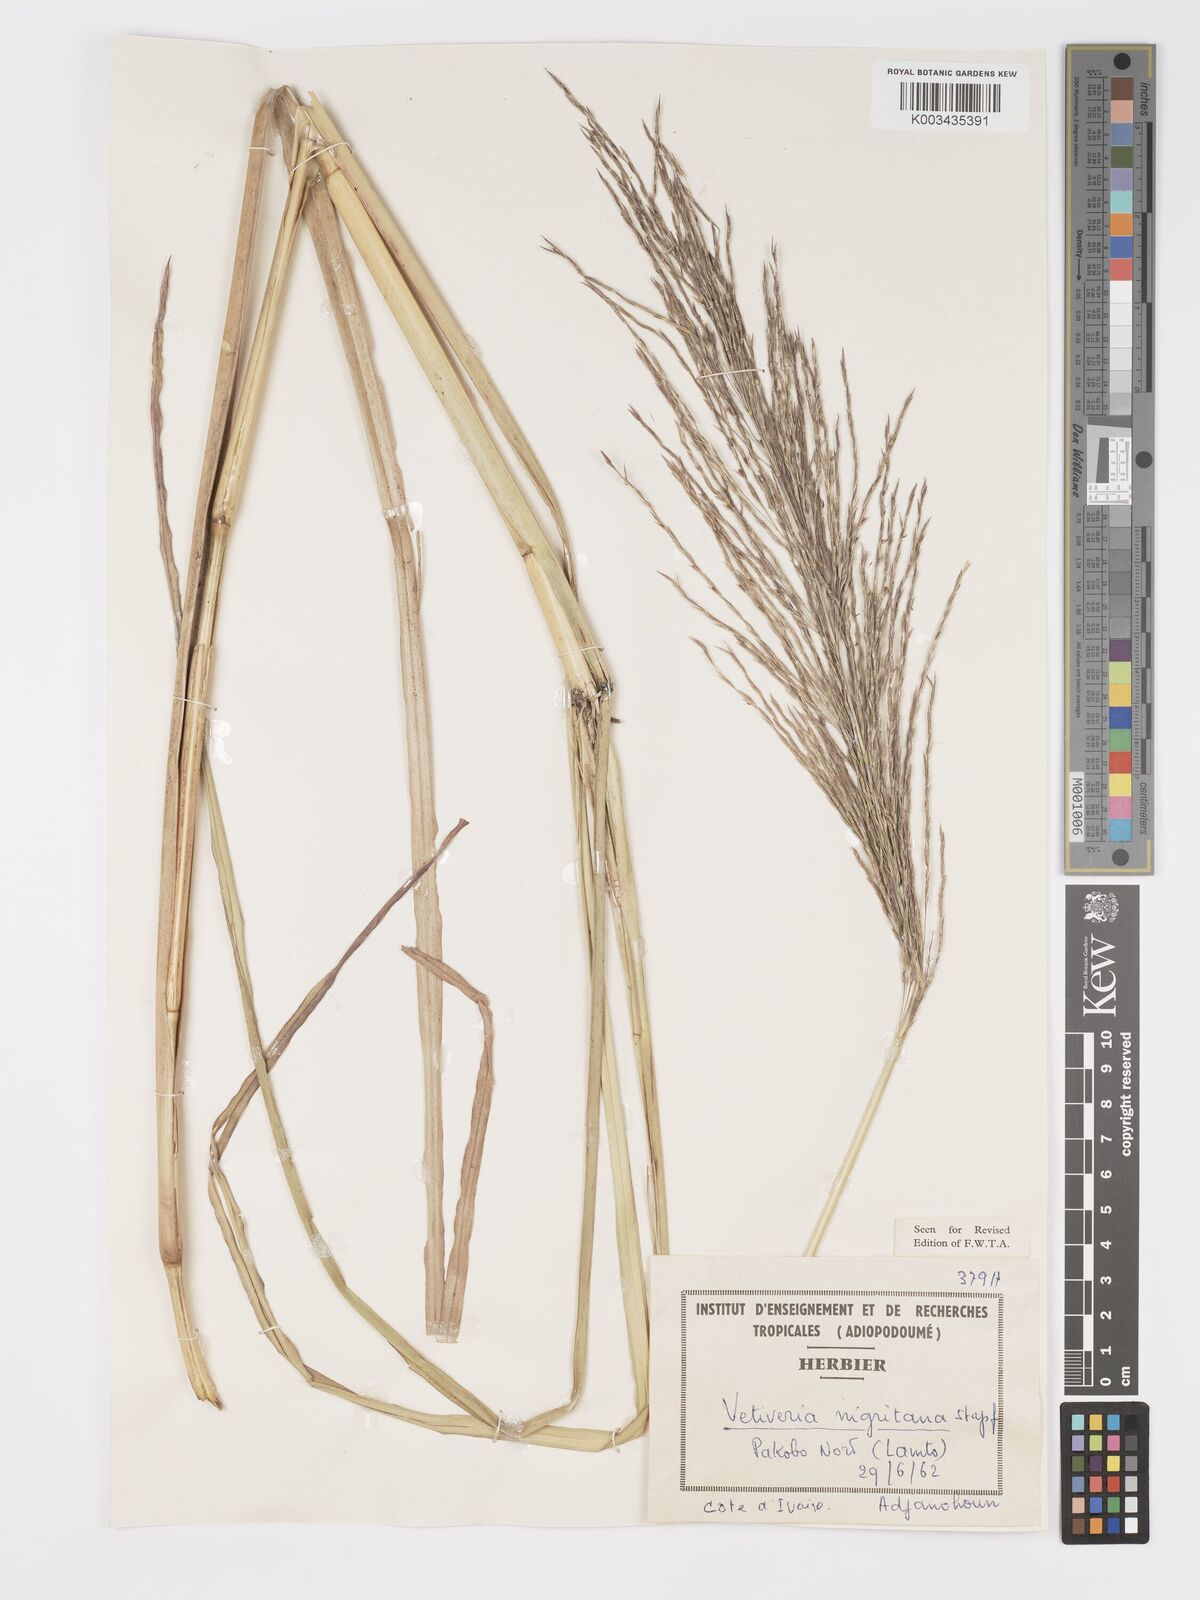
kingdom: Plantae
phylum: Tracheophyta
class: Liliopsida
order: Poales
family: Poaceae
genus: Chrysopogon
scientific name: Chrysopogon nigritanus
